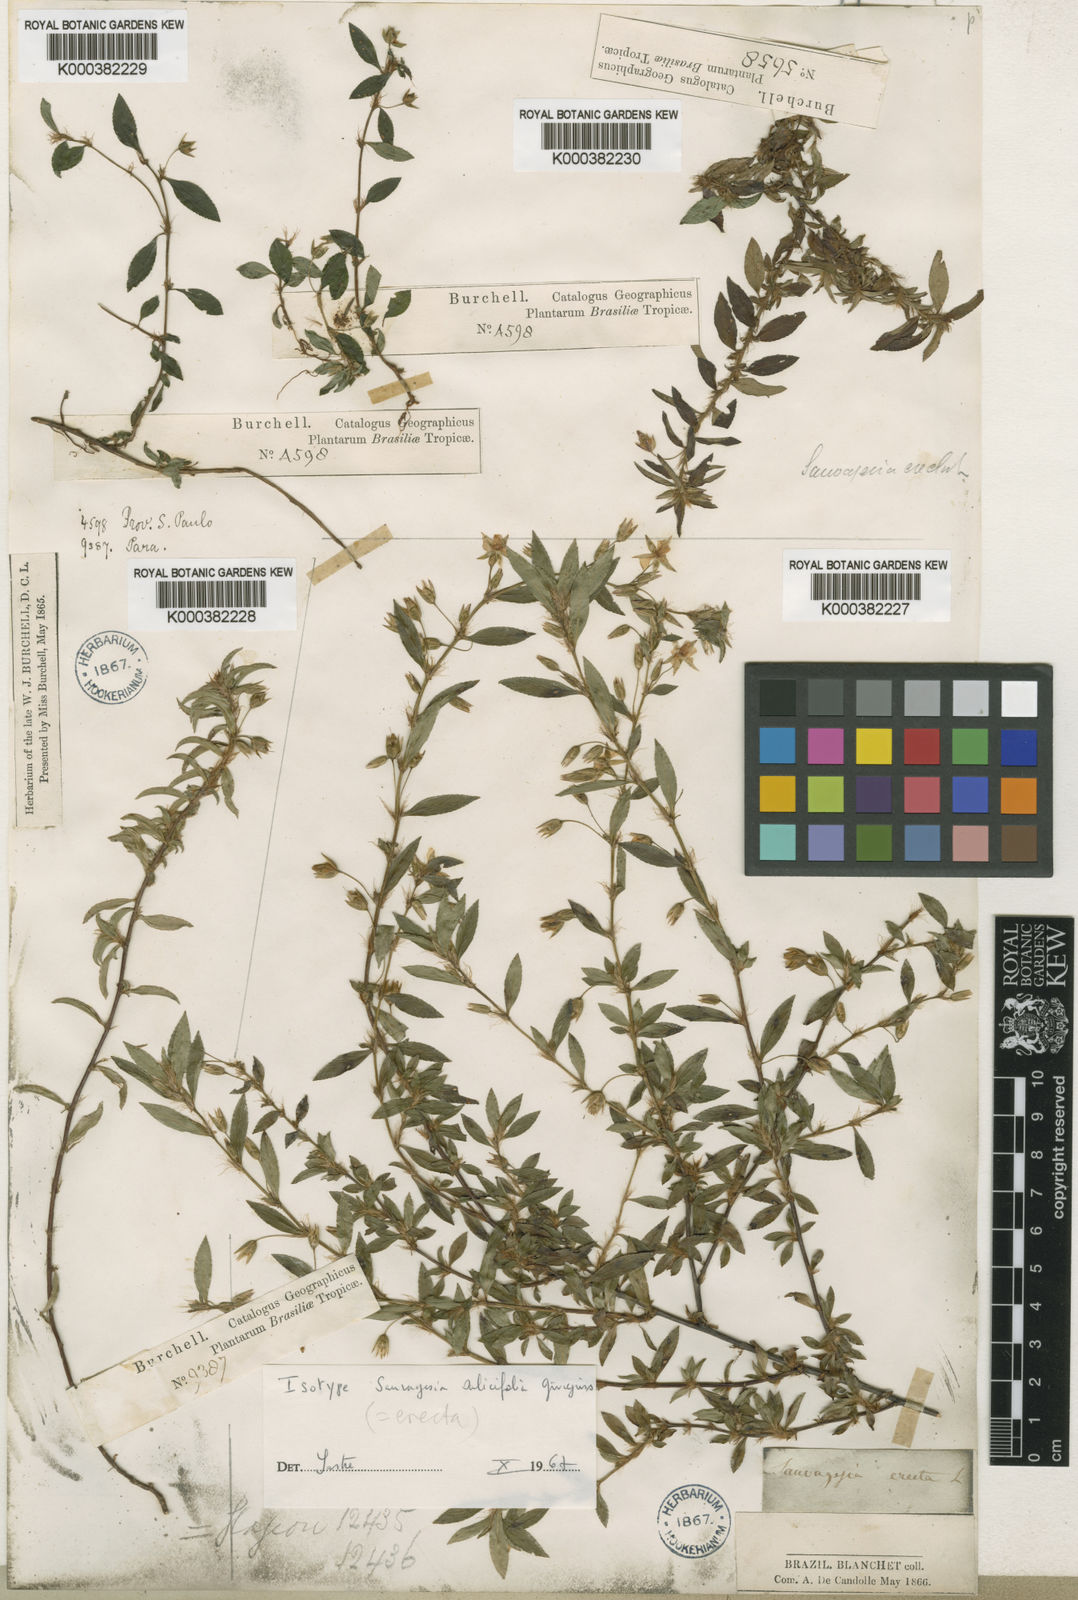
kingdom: Plantae
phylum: Tracheophyta
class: Magnoliopsida
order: Malpighiales
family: Ochnaceae
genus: Sauvagesia
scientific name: Sauvagesia erecta
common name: Creole tea
